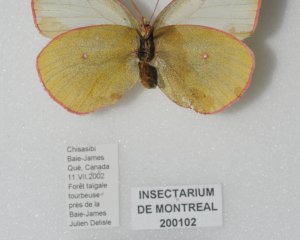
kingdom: Animalia
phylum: Arthropoda
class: Insecta
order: Lepidoptera
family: Pieridae
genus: Colias
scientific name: Colias pelidne
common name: Pelidne Sulphur
